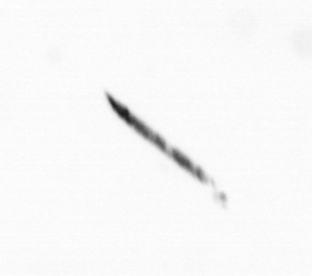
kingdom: Bacteria
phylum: Cyanobacteria
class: Cyanobacteriia
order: Cyanobacteriales
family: Microcoleaceae
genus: Trichodesmium
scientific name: Trichodesmium
